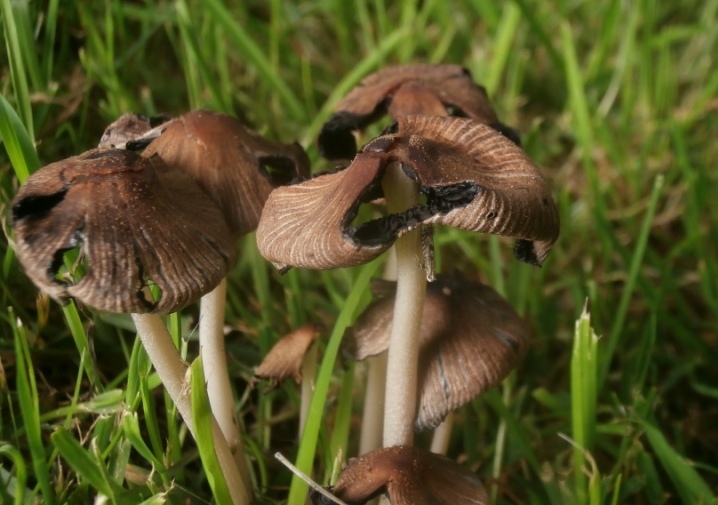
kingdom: Fungi
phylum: Basidiomycota
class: Agaricomycetes
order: Agaricales
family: Psathyrellaceae
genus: Coprinellus
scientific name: Coprinellus micaceus
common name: glimmer-blækhat
